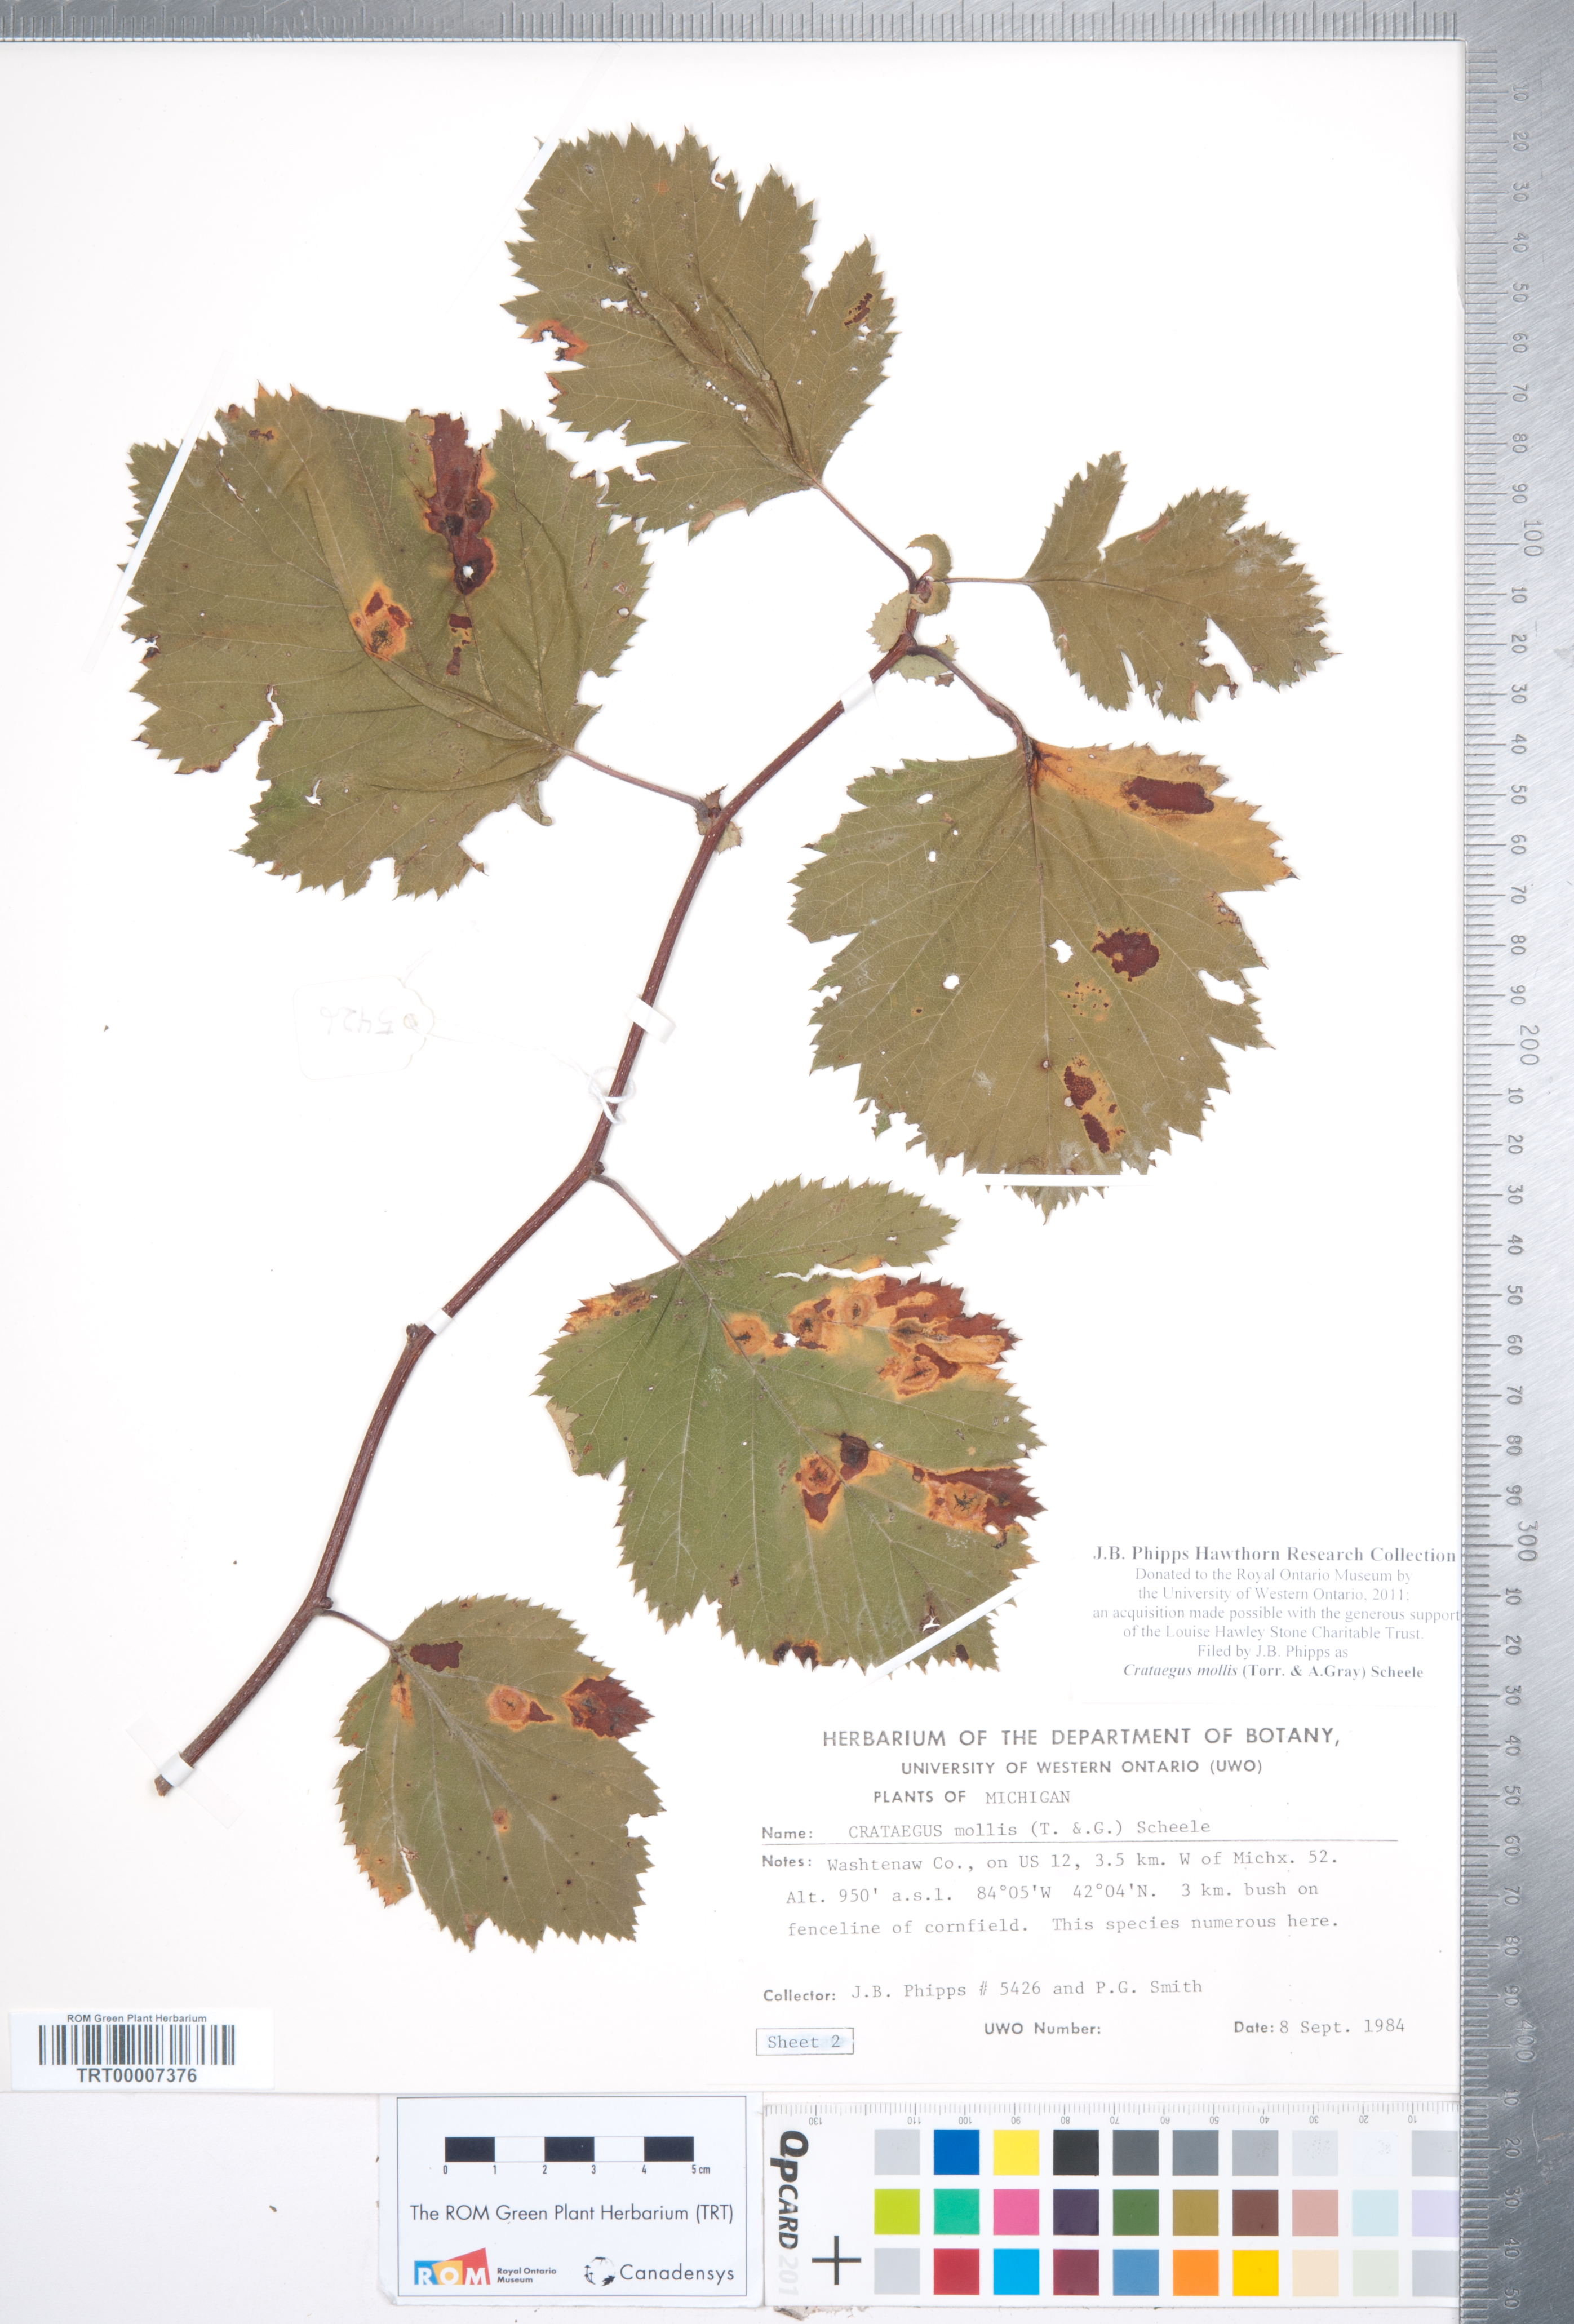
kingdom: Plantae
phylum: Tracheophyta
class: Magnoliopsida
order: Rosales
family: Rosaceae
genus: Crataegus
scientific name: Crataegus mollis
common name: Downy hawthorn
